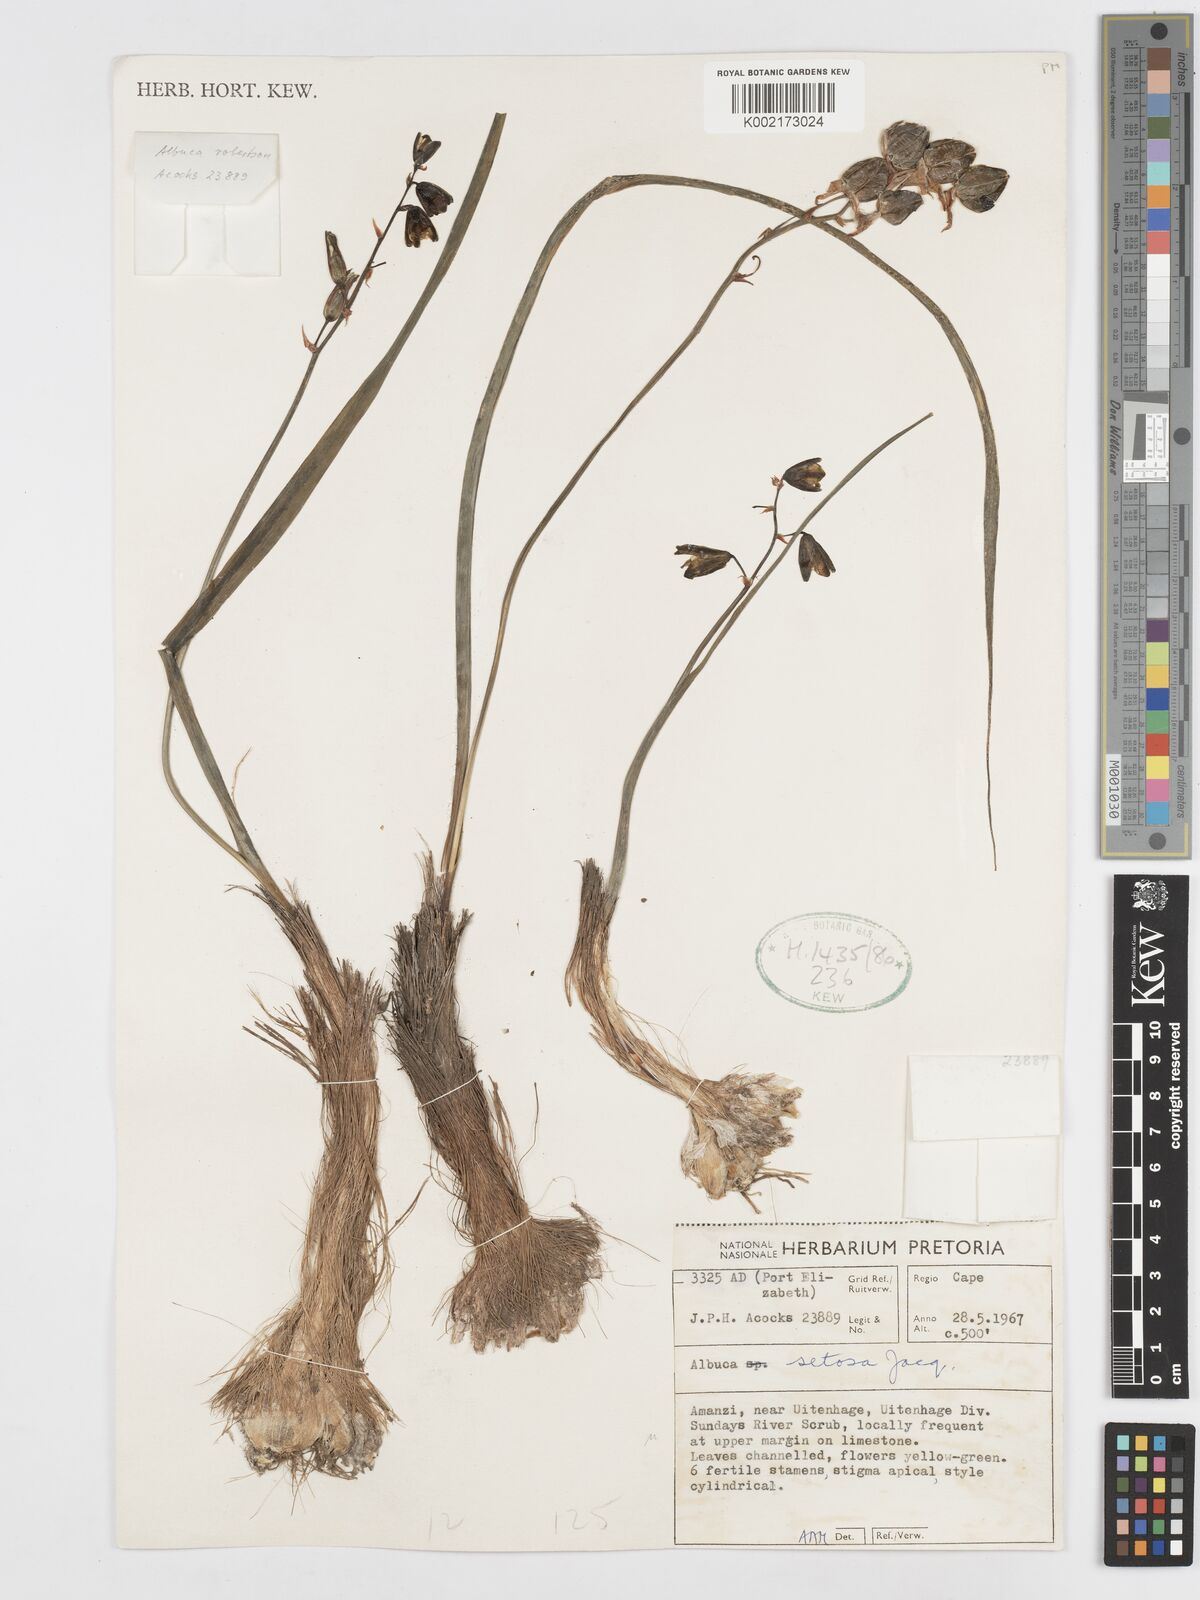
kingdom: Plantae
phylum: Tracheophyta
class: Liliopsida
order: Asparagales
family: Asparagaceae
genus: Albuca
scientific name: Albuca setosa
